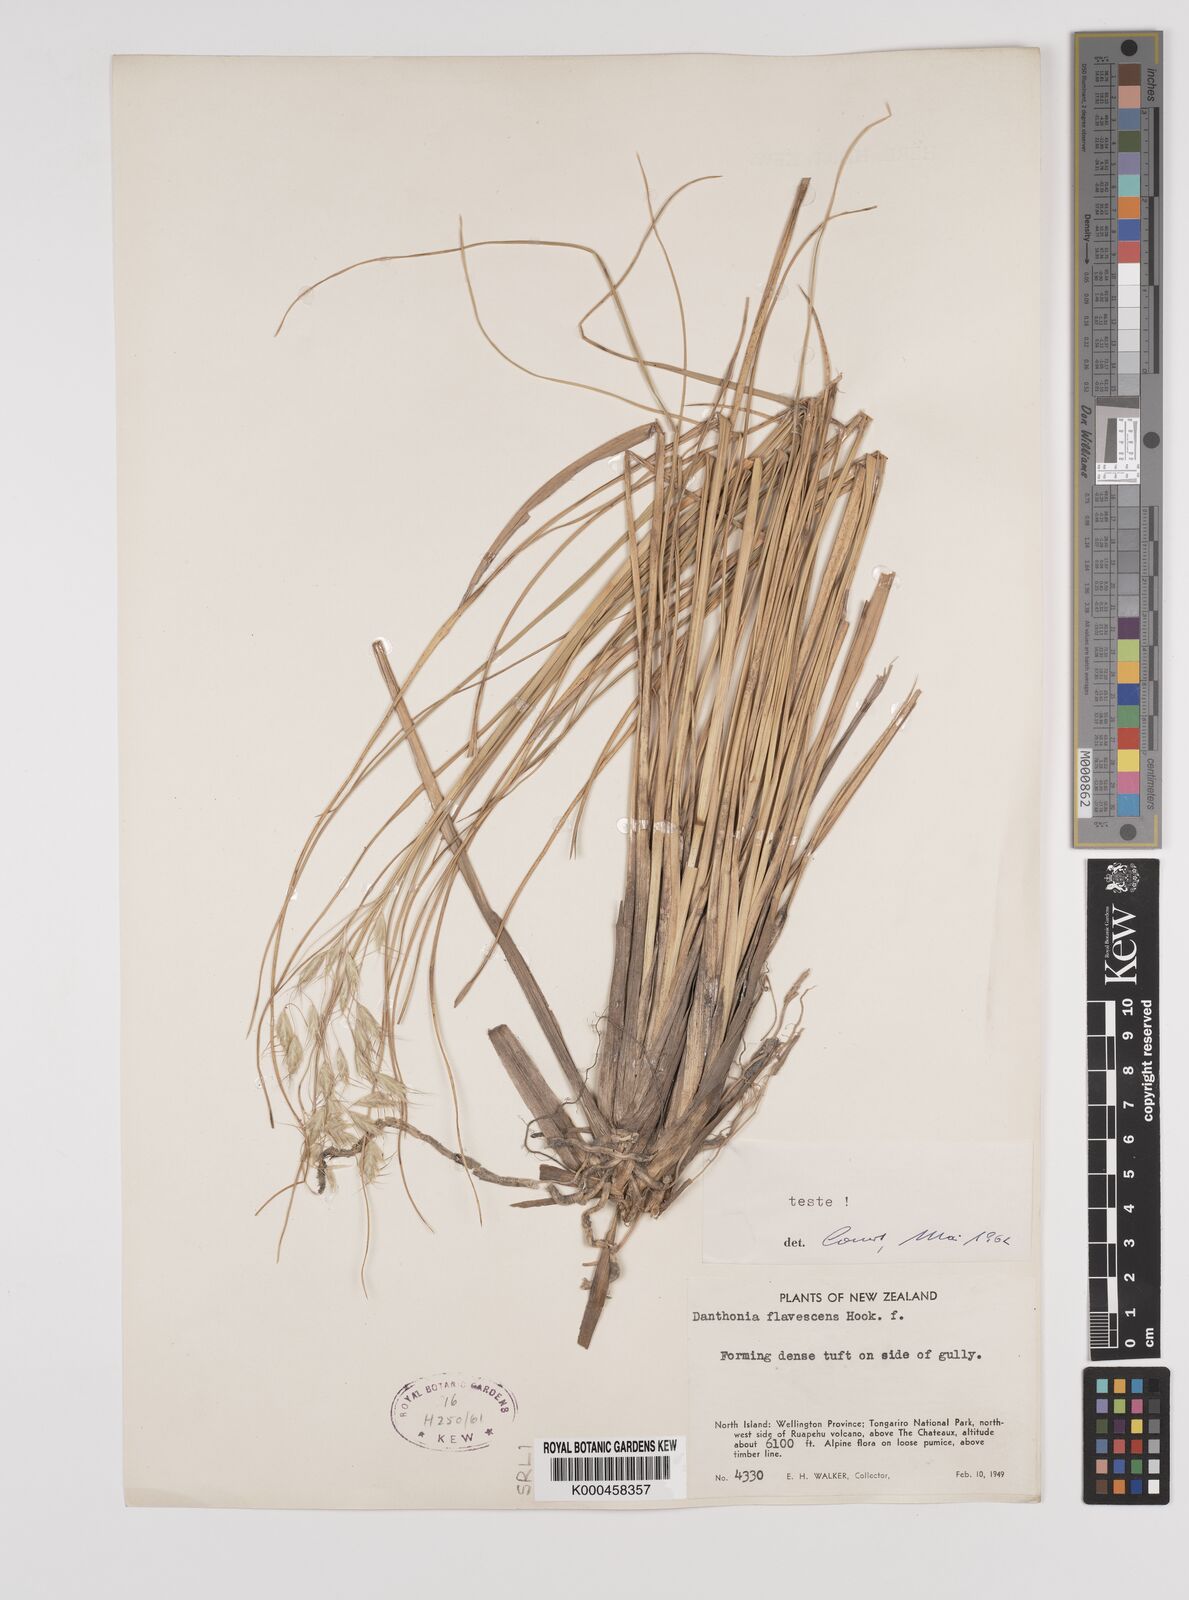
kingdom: Plantae
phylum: Tracheophyta
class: Liliopsida
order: Poales
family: Poaceae
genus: Chionochloa
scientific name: Chionochloa rigida
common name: Narrow leaved snow tussock
